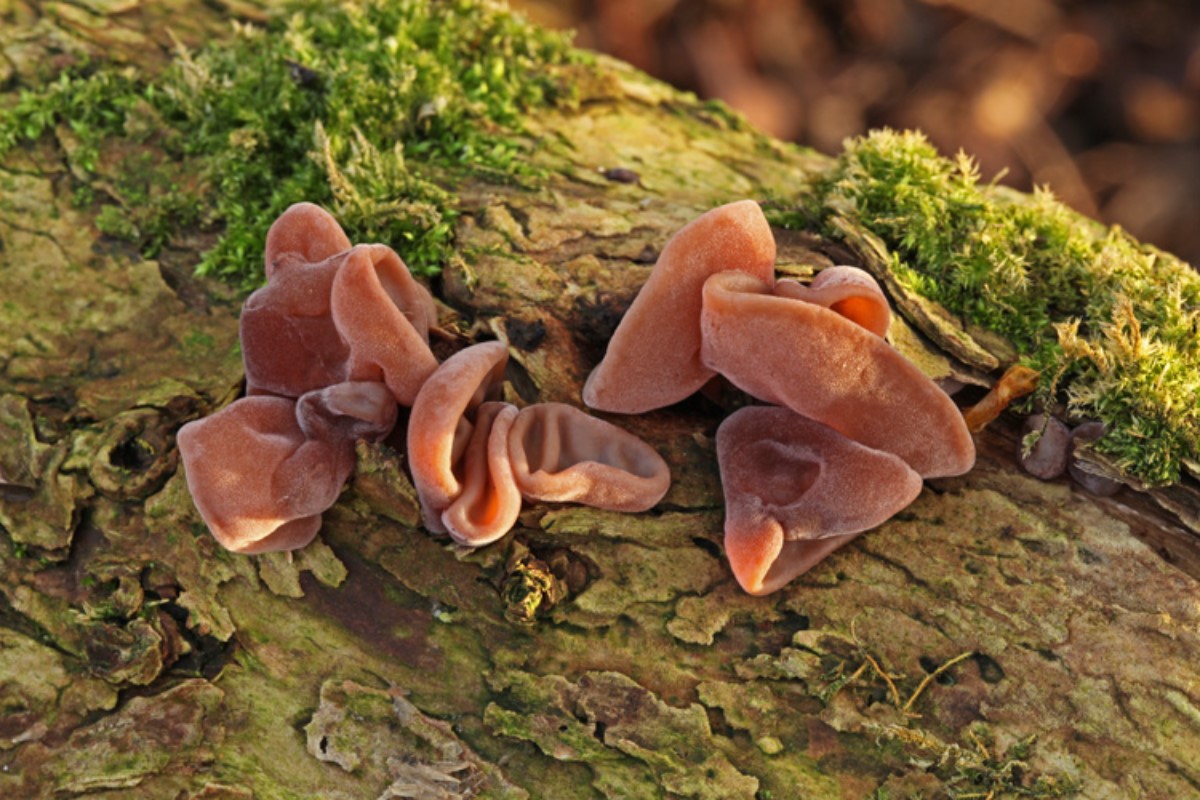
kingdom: Fungi
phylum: Basidiomycota
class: Agaricomycetes
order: Auriculariales
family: Auriculariaceae
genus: Auricularia
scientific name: Auricularia auricula-judae
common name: almindelig judasøre
